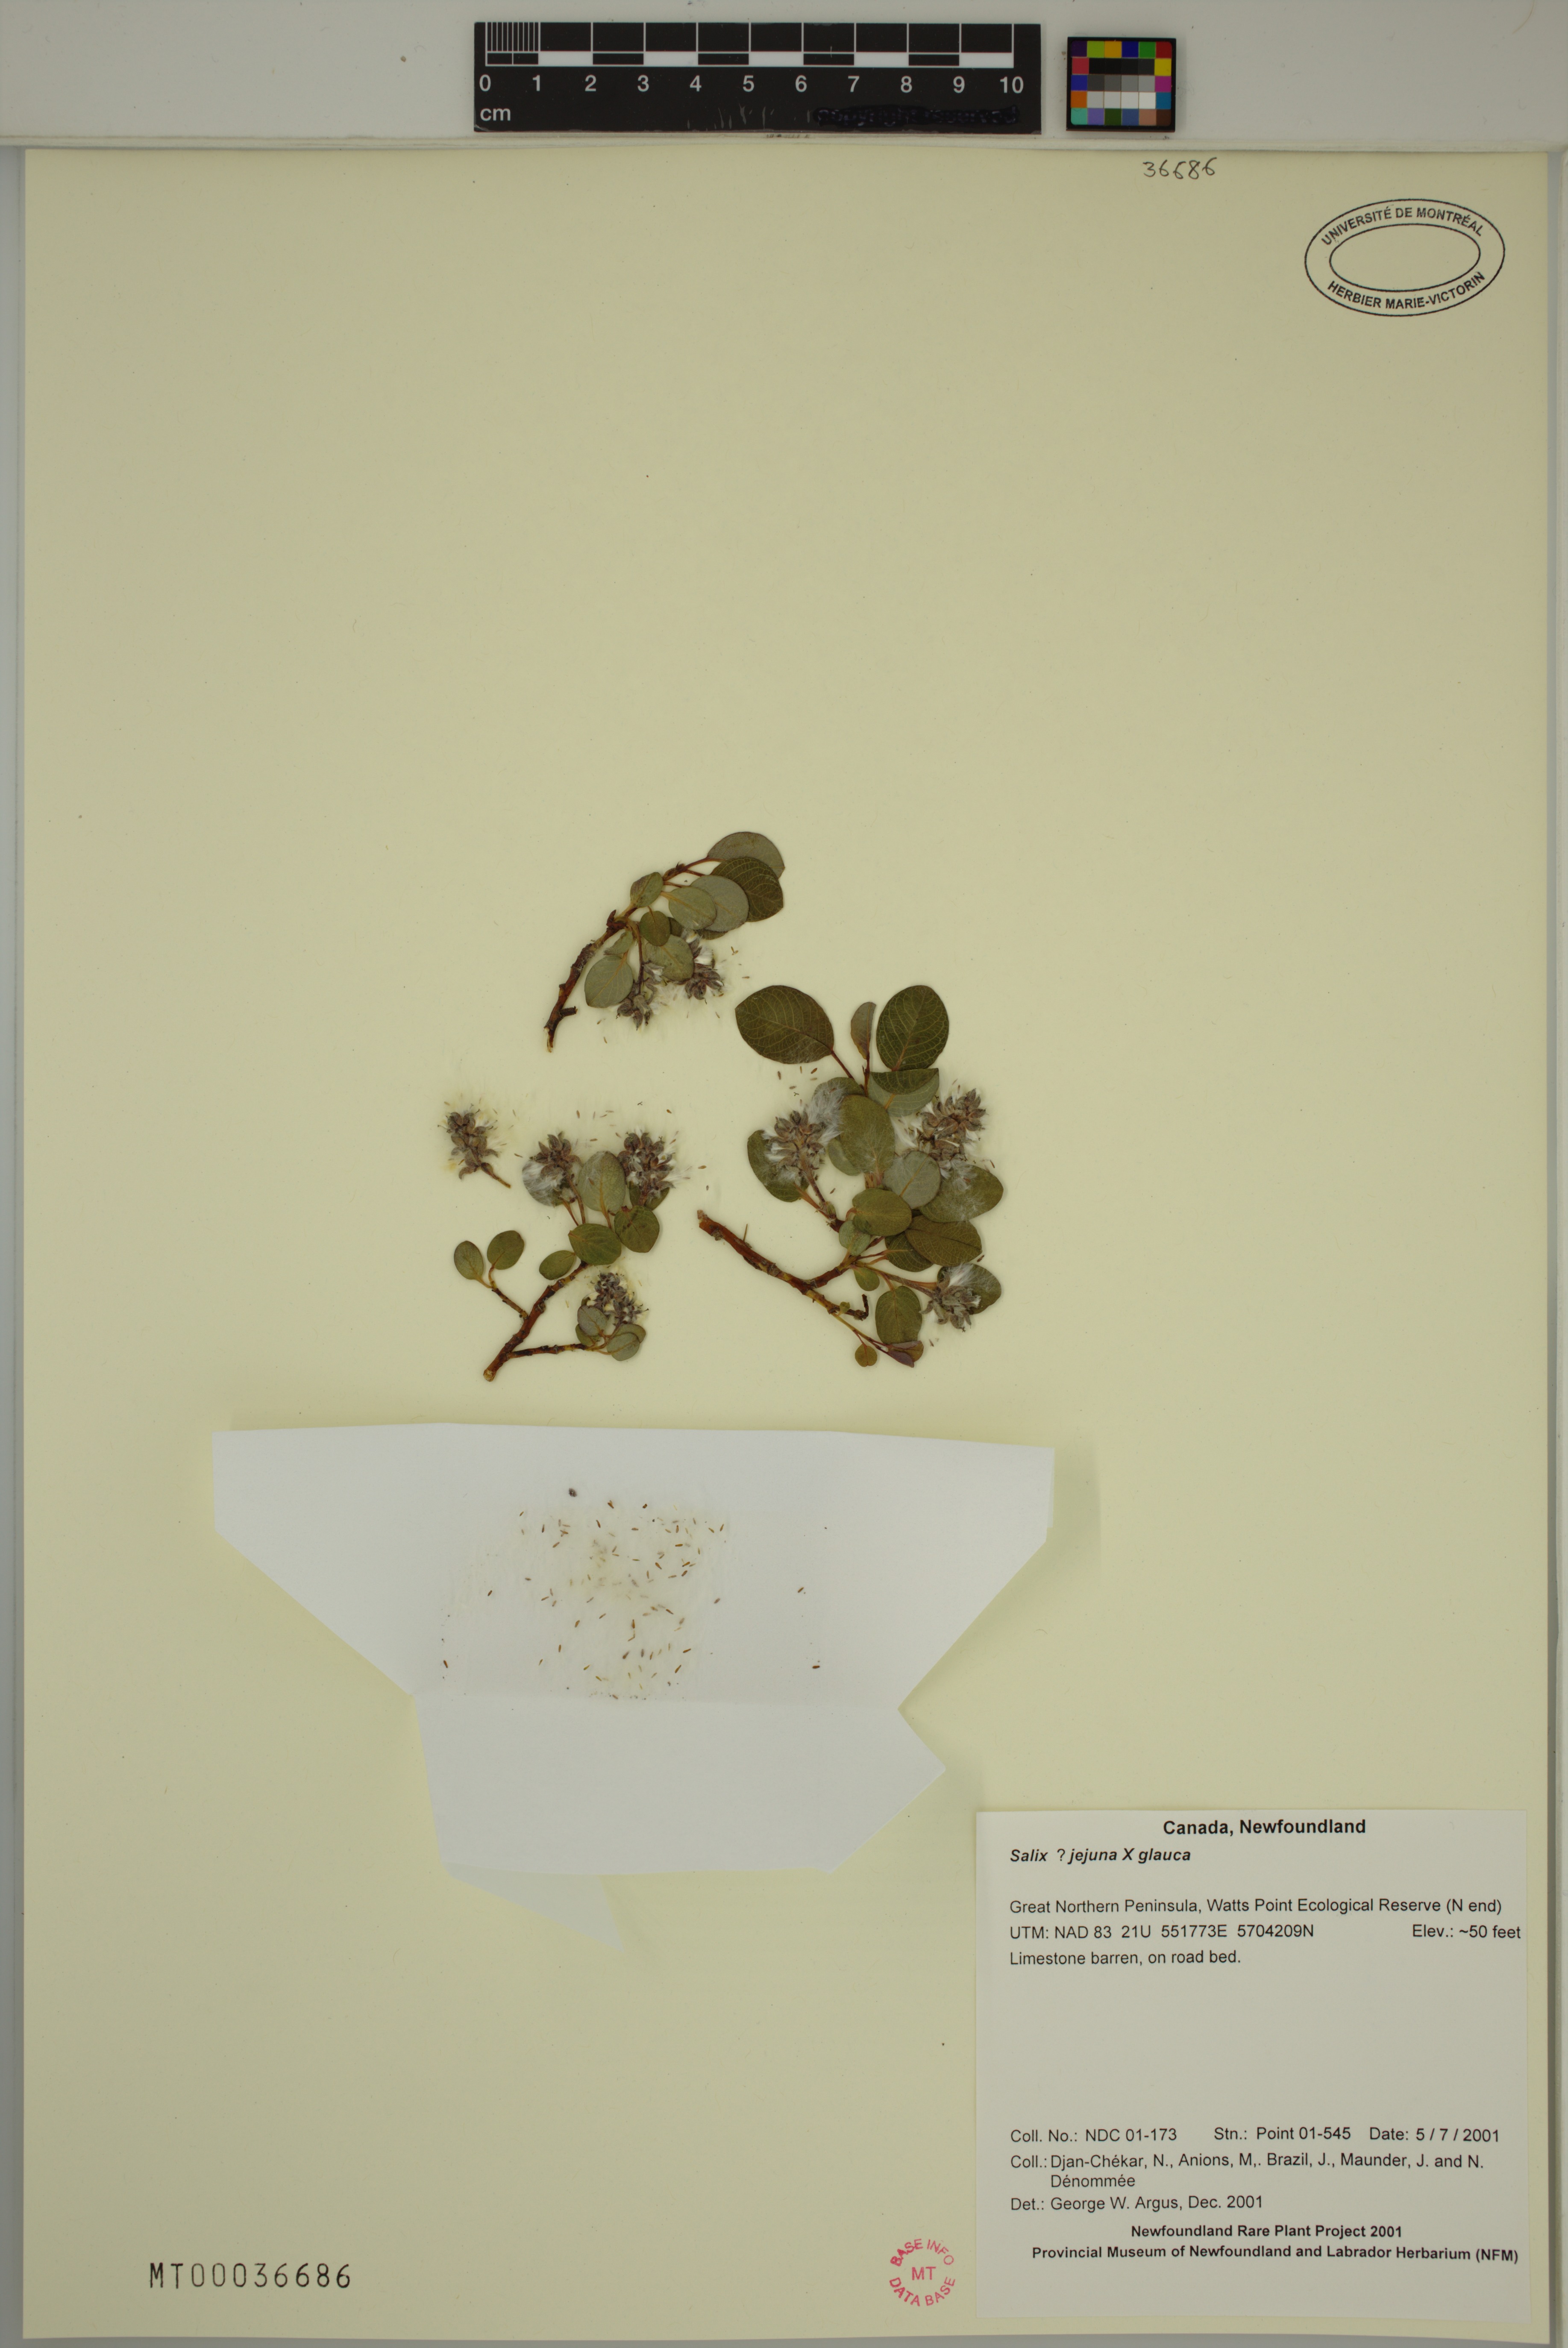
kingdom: Plantae
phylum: Tracheophyta
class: Magnoliopsida
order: Malpighiales
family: Salicaceae
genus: Salix
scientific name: Salix glauca
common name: Glaucous willow
